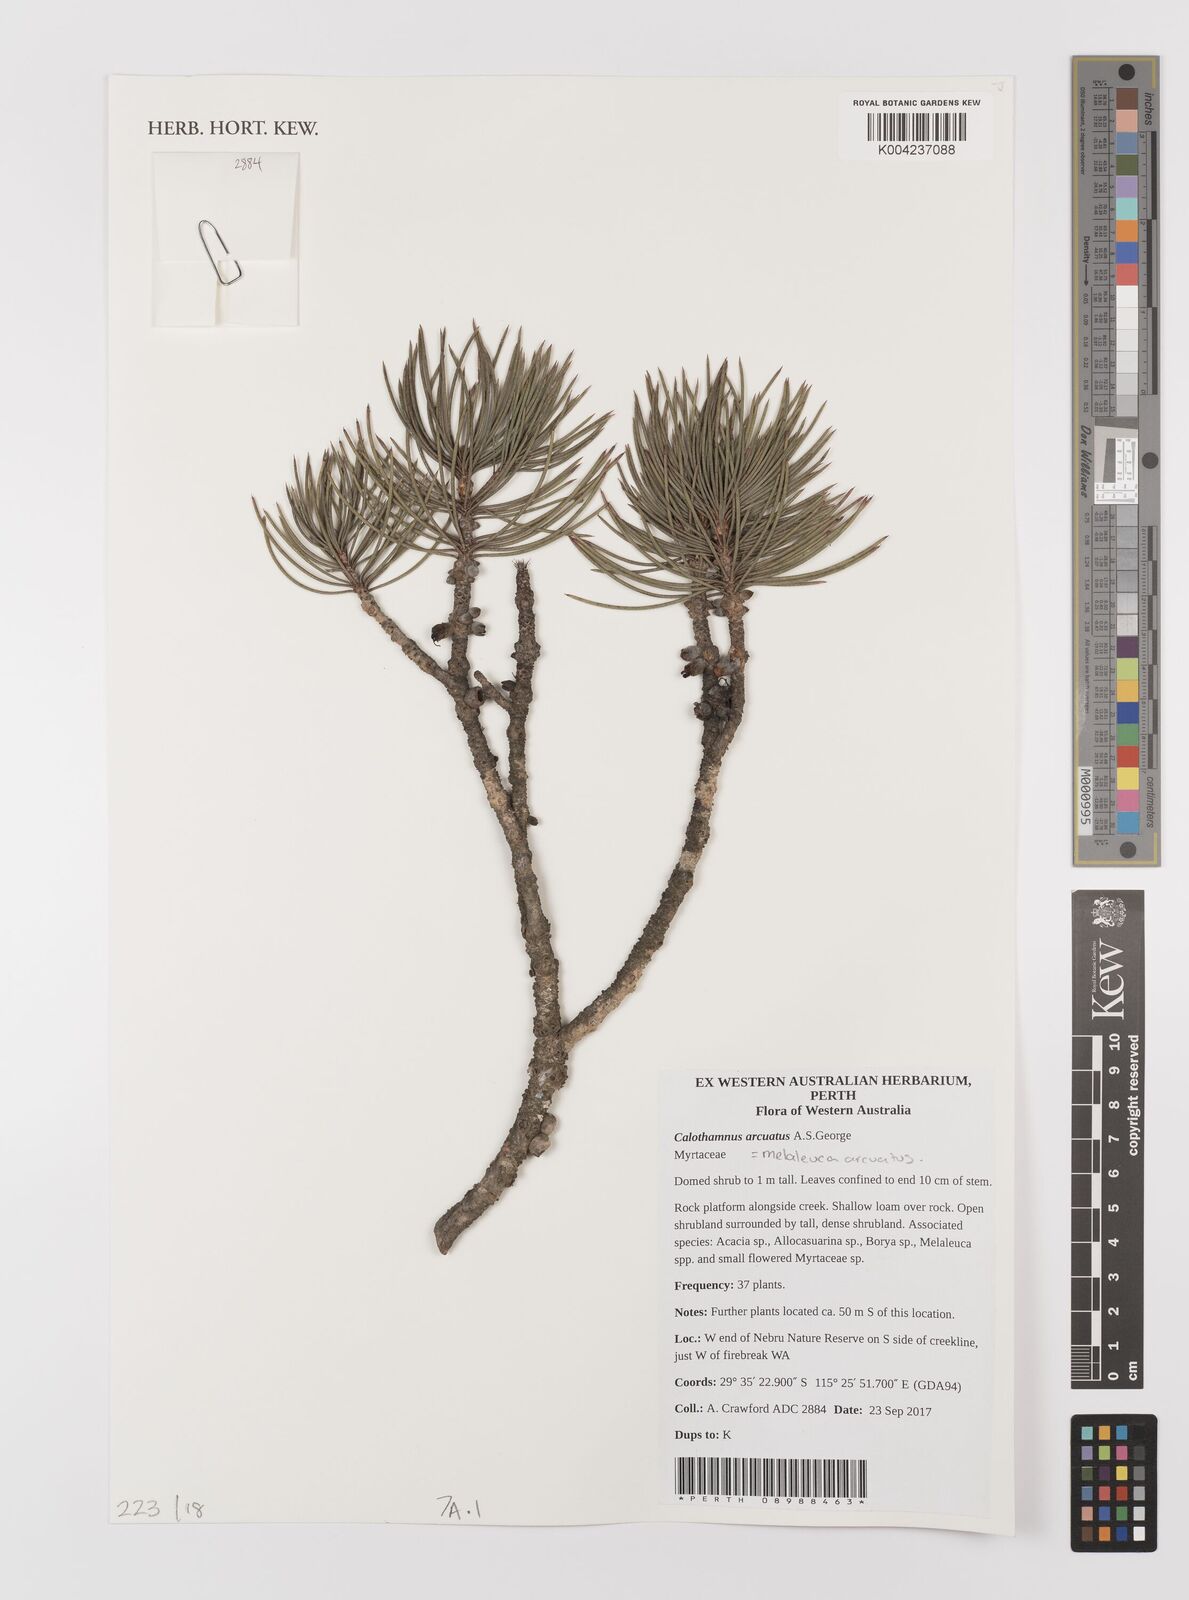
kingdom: Plantae
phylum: Tracheophyta
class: Magnoliopsida
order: Myrtales
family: Myrtaceae
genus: Melaleuca
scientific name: Melaleuca arcuata
